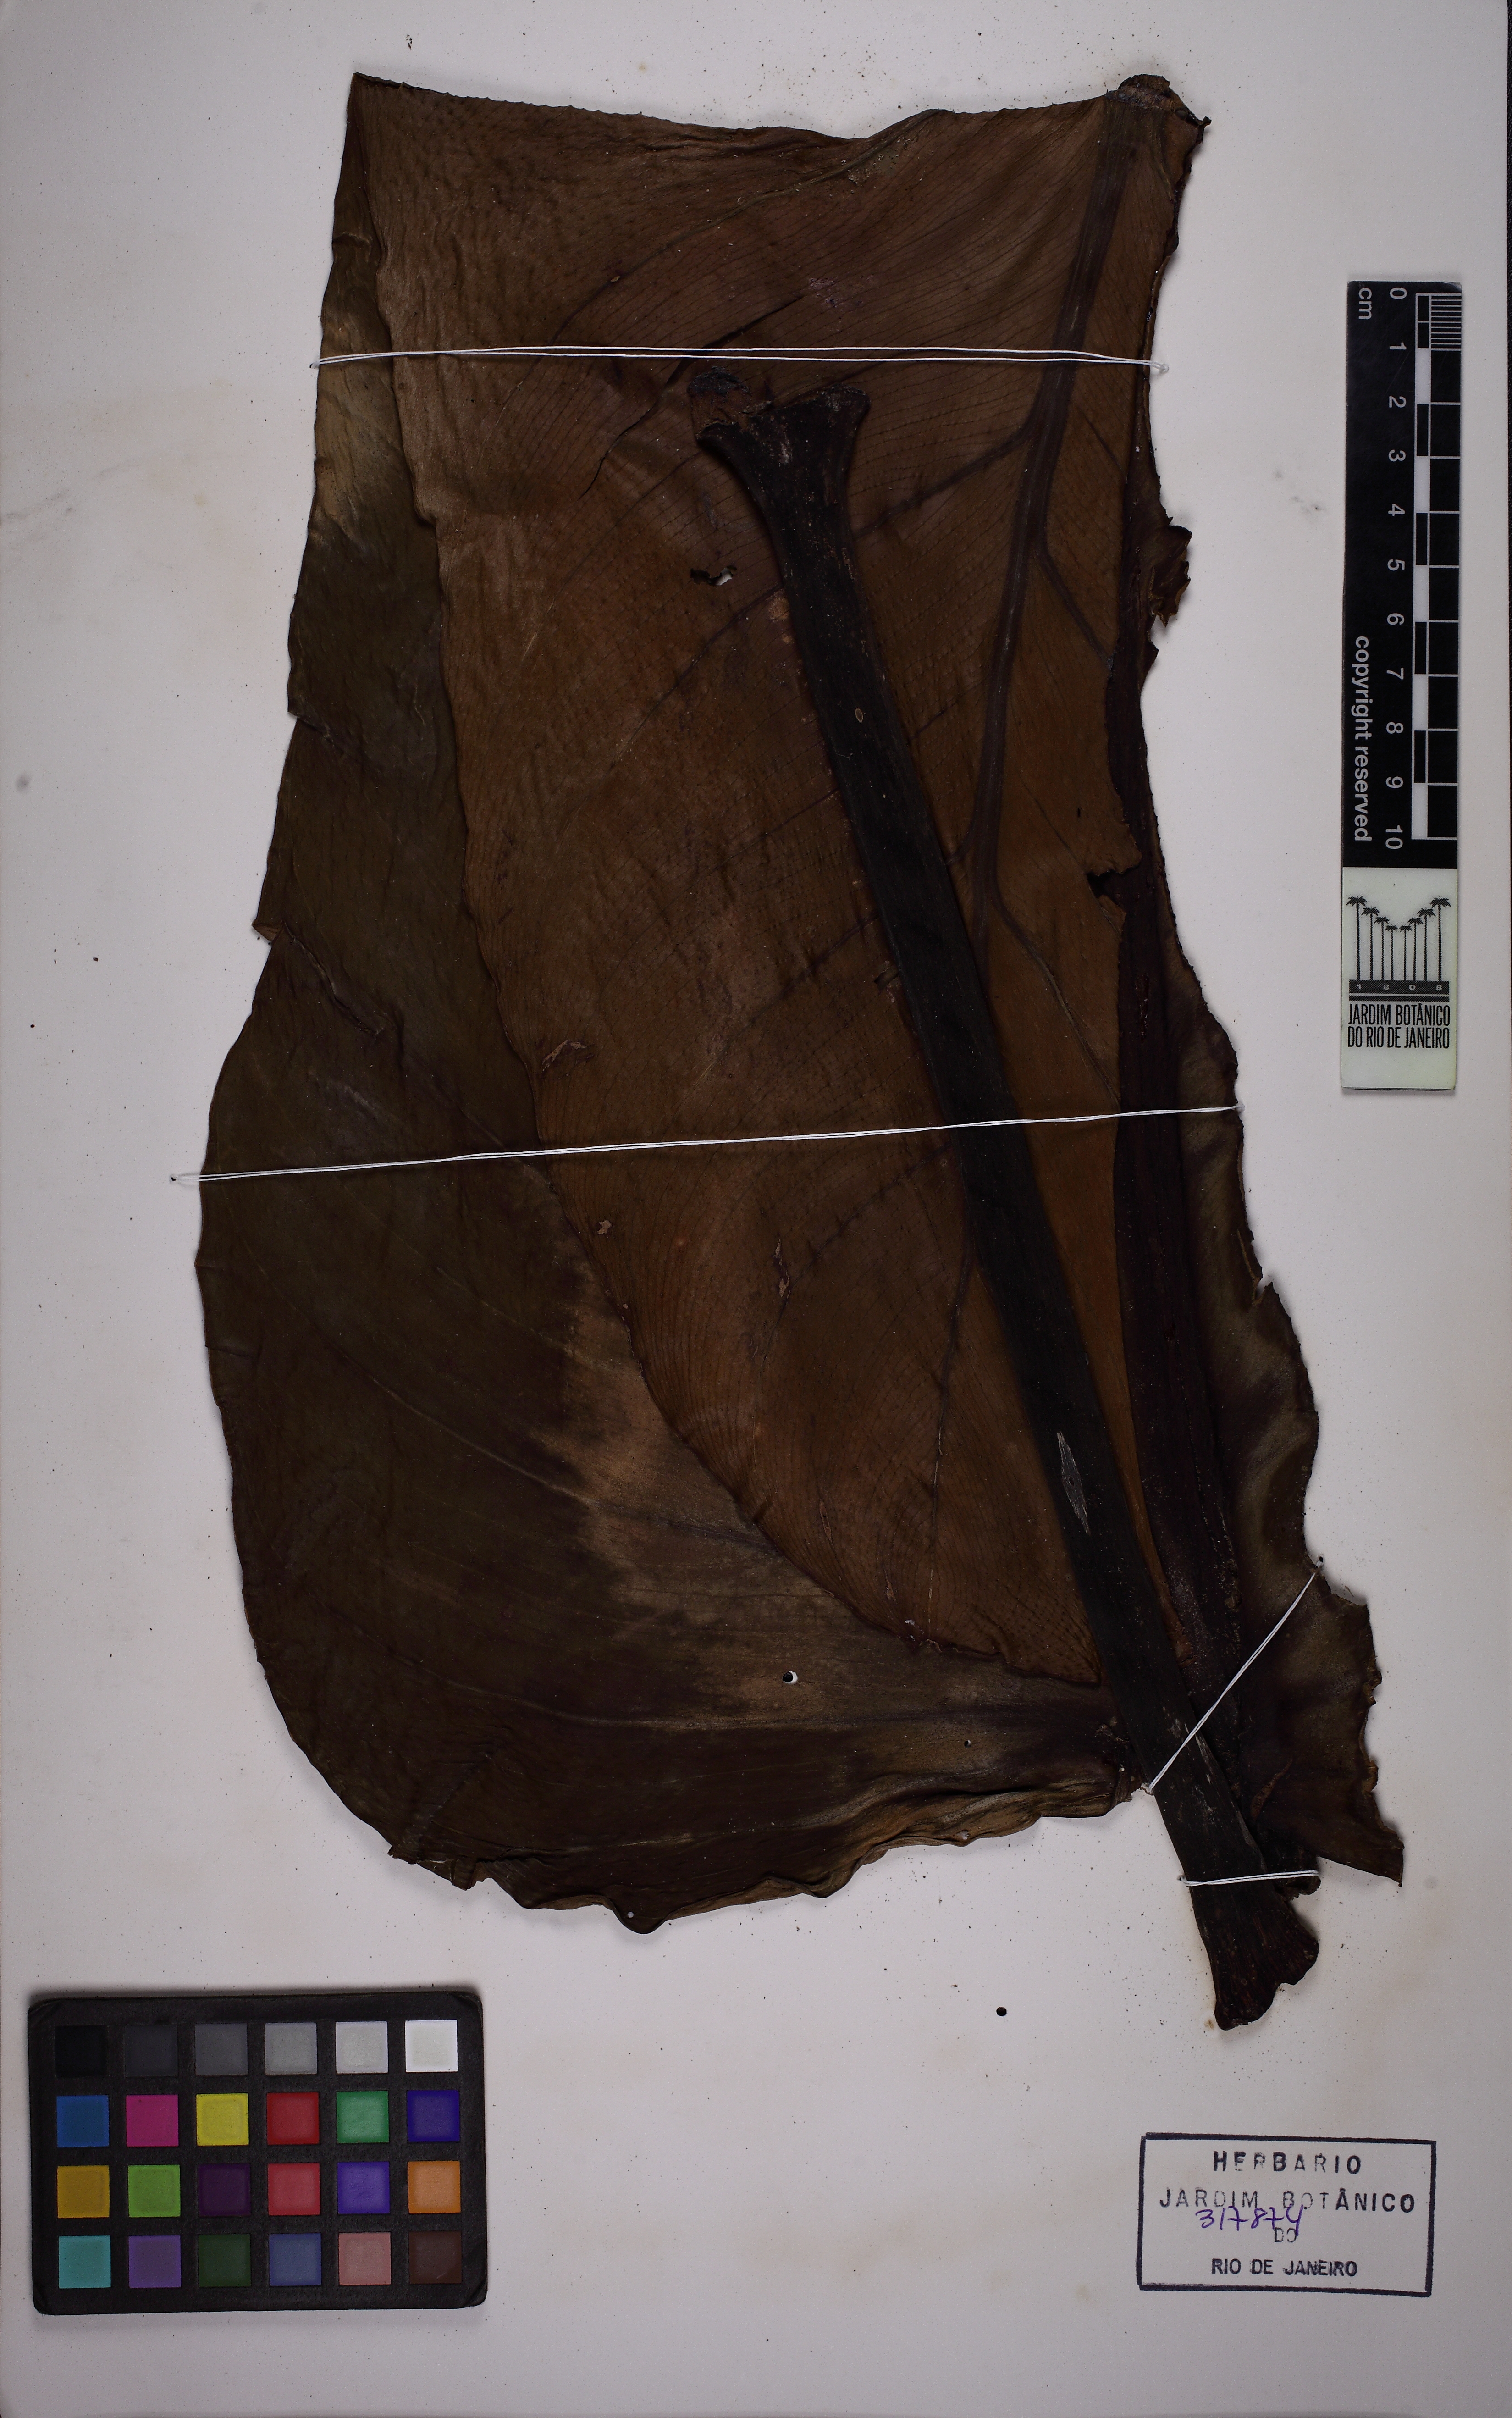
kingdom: Plantae
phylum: Tracheophyta
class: Liliopsida
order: Alismatales
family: Araceae
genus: Philodendron
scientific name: Philodendron
